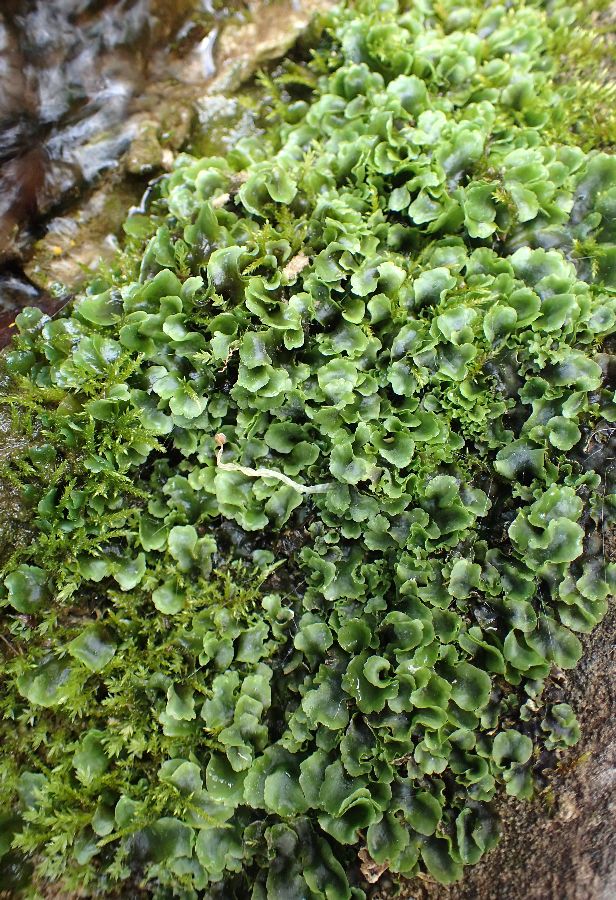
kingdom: Plantae
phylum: Marchantiophyta
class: Marchantiopsida
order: Marchantiales
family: Marchantiaceae
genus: Marchantia
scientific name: Marchantia
